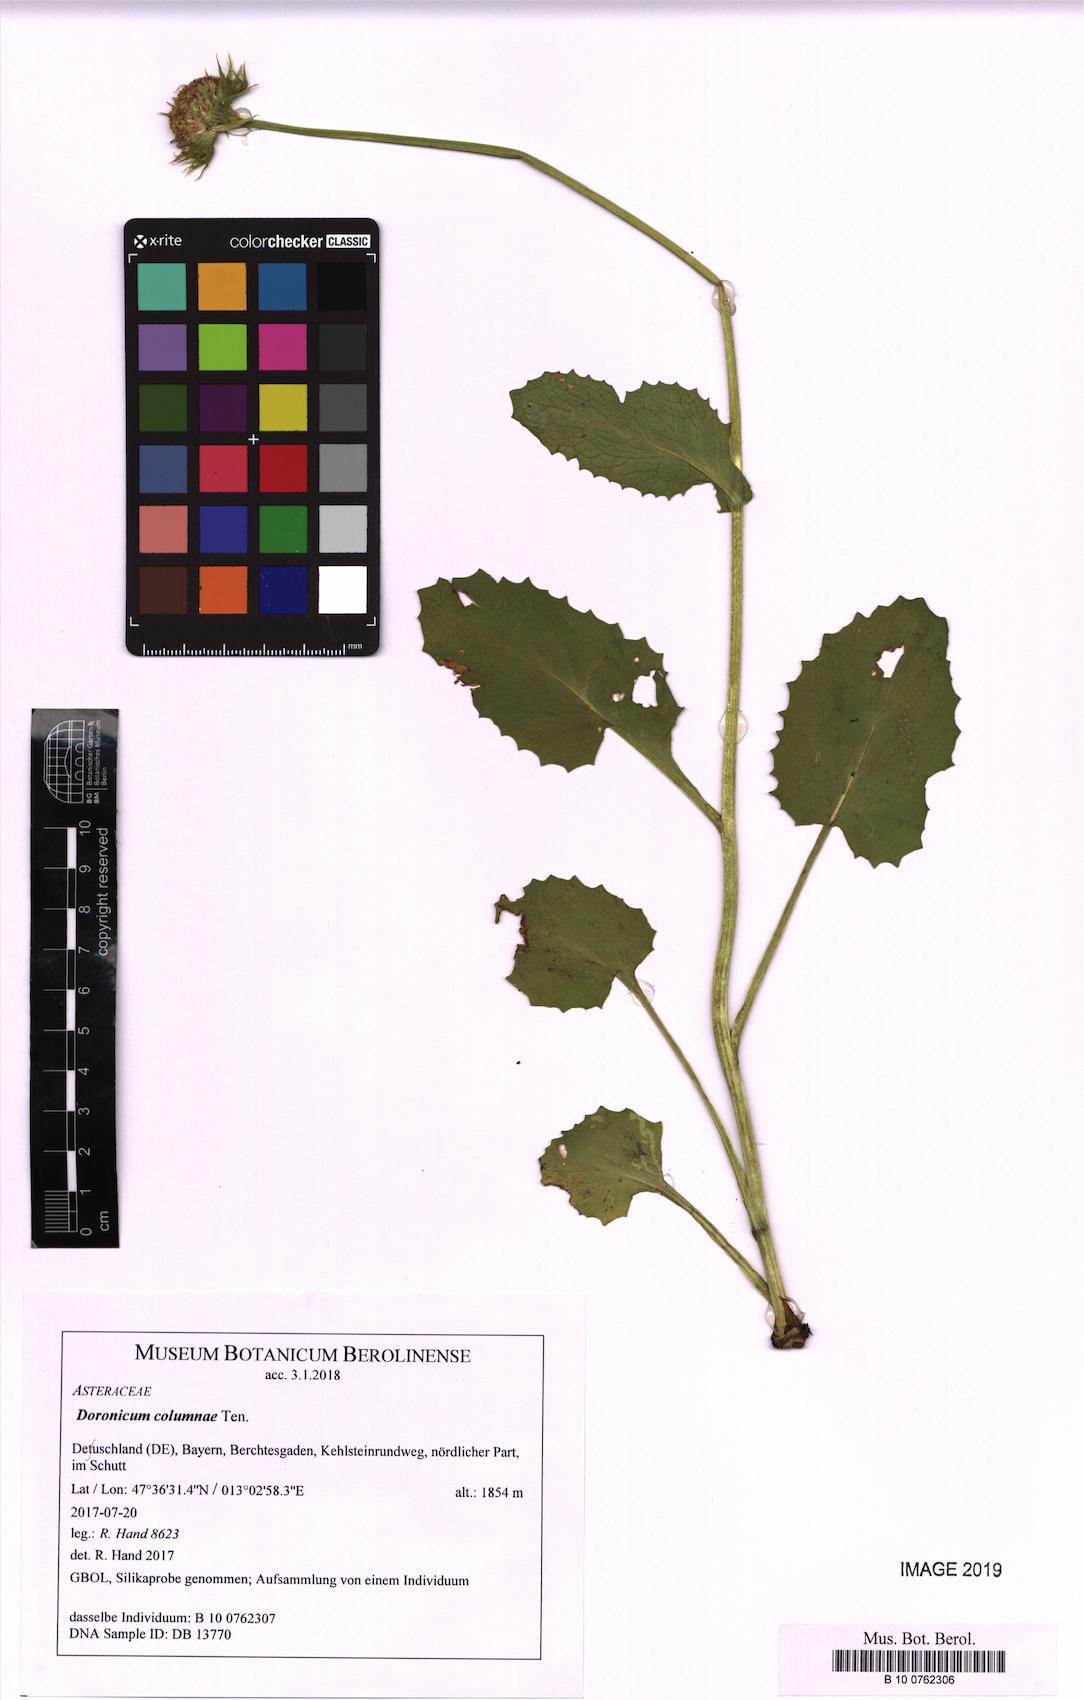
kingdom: Plantae
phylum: Tracheophyta
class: Magnoliopsida
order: Asterales
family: Asteraceae
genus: Doronicum
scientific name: Doronicum columnae
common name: Eastern leopard's-bane
